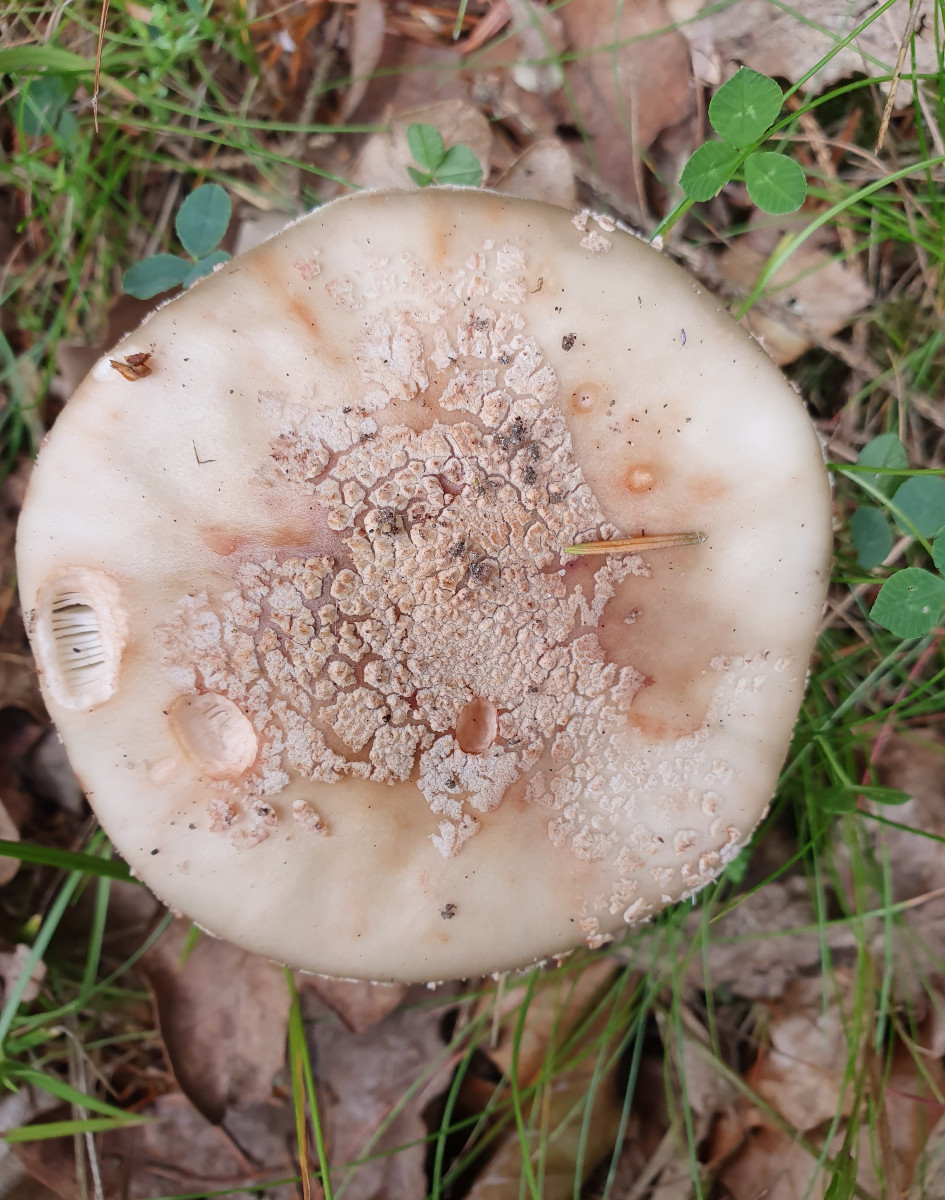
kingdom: Fungi
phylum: Basidiomycota
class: Agaricomycetes
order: Agaricales
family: Amanitaceae
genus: Amanita
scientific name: Amanita rubescens
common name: rødmende fluesvamp
